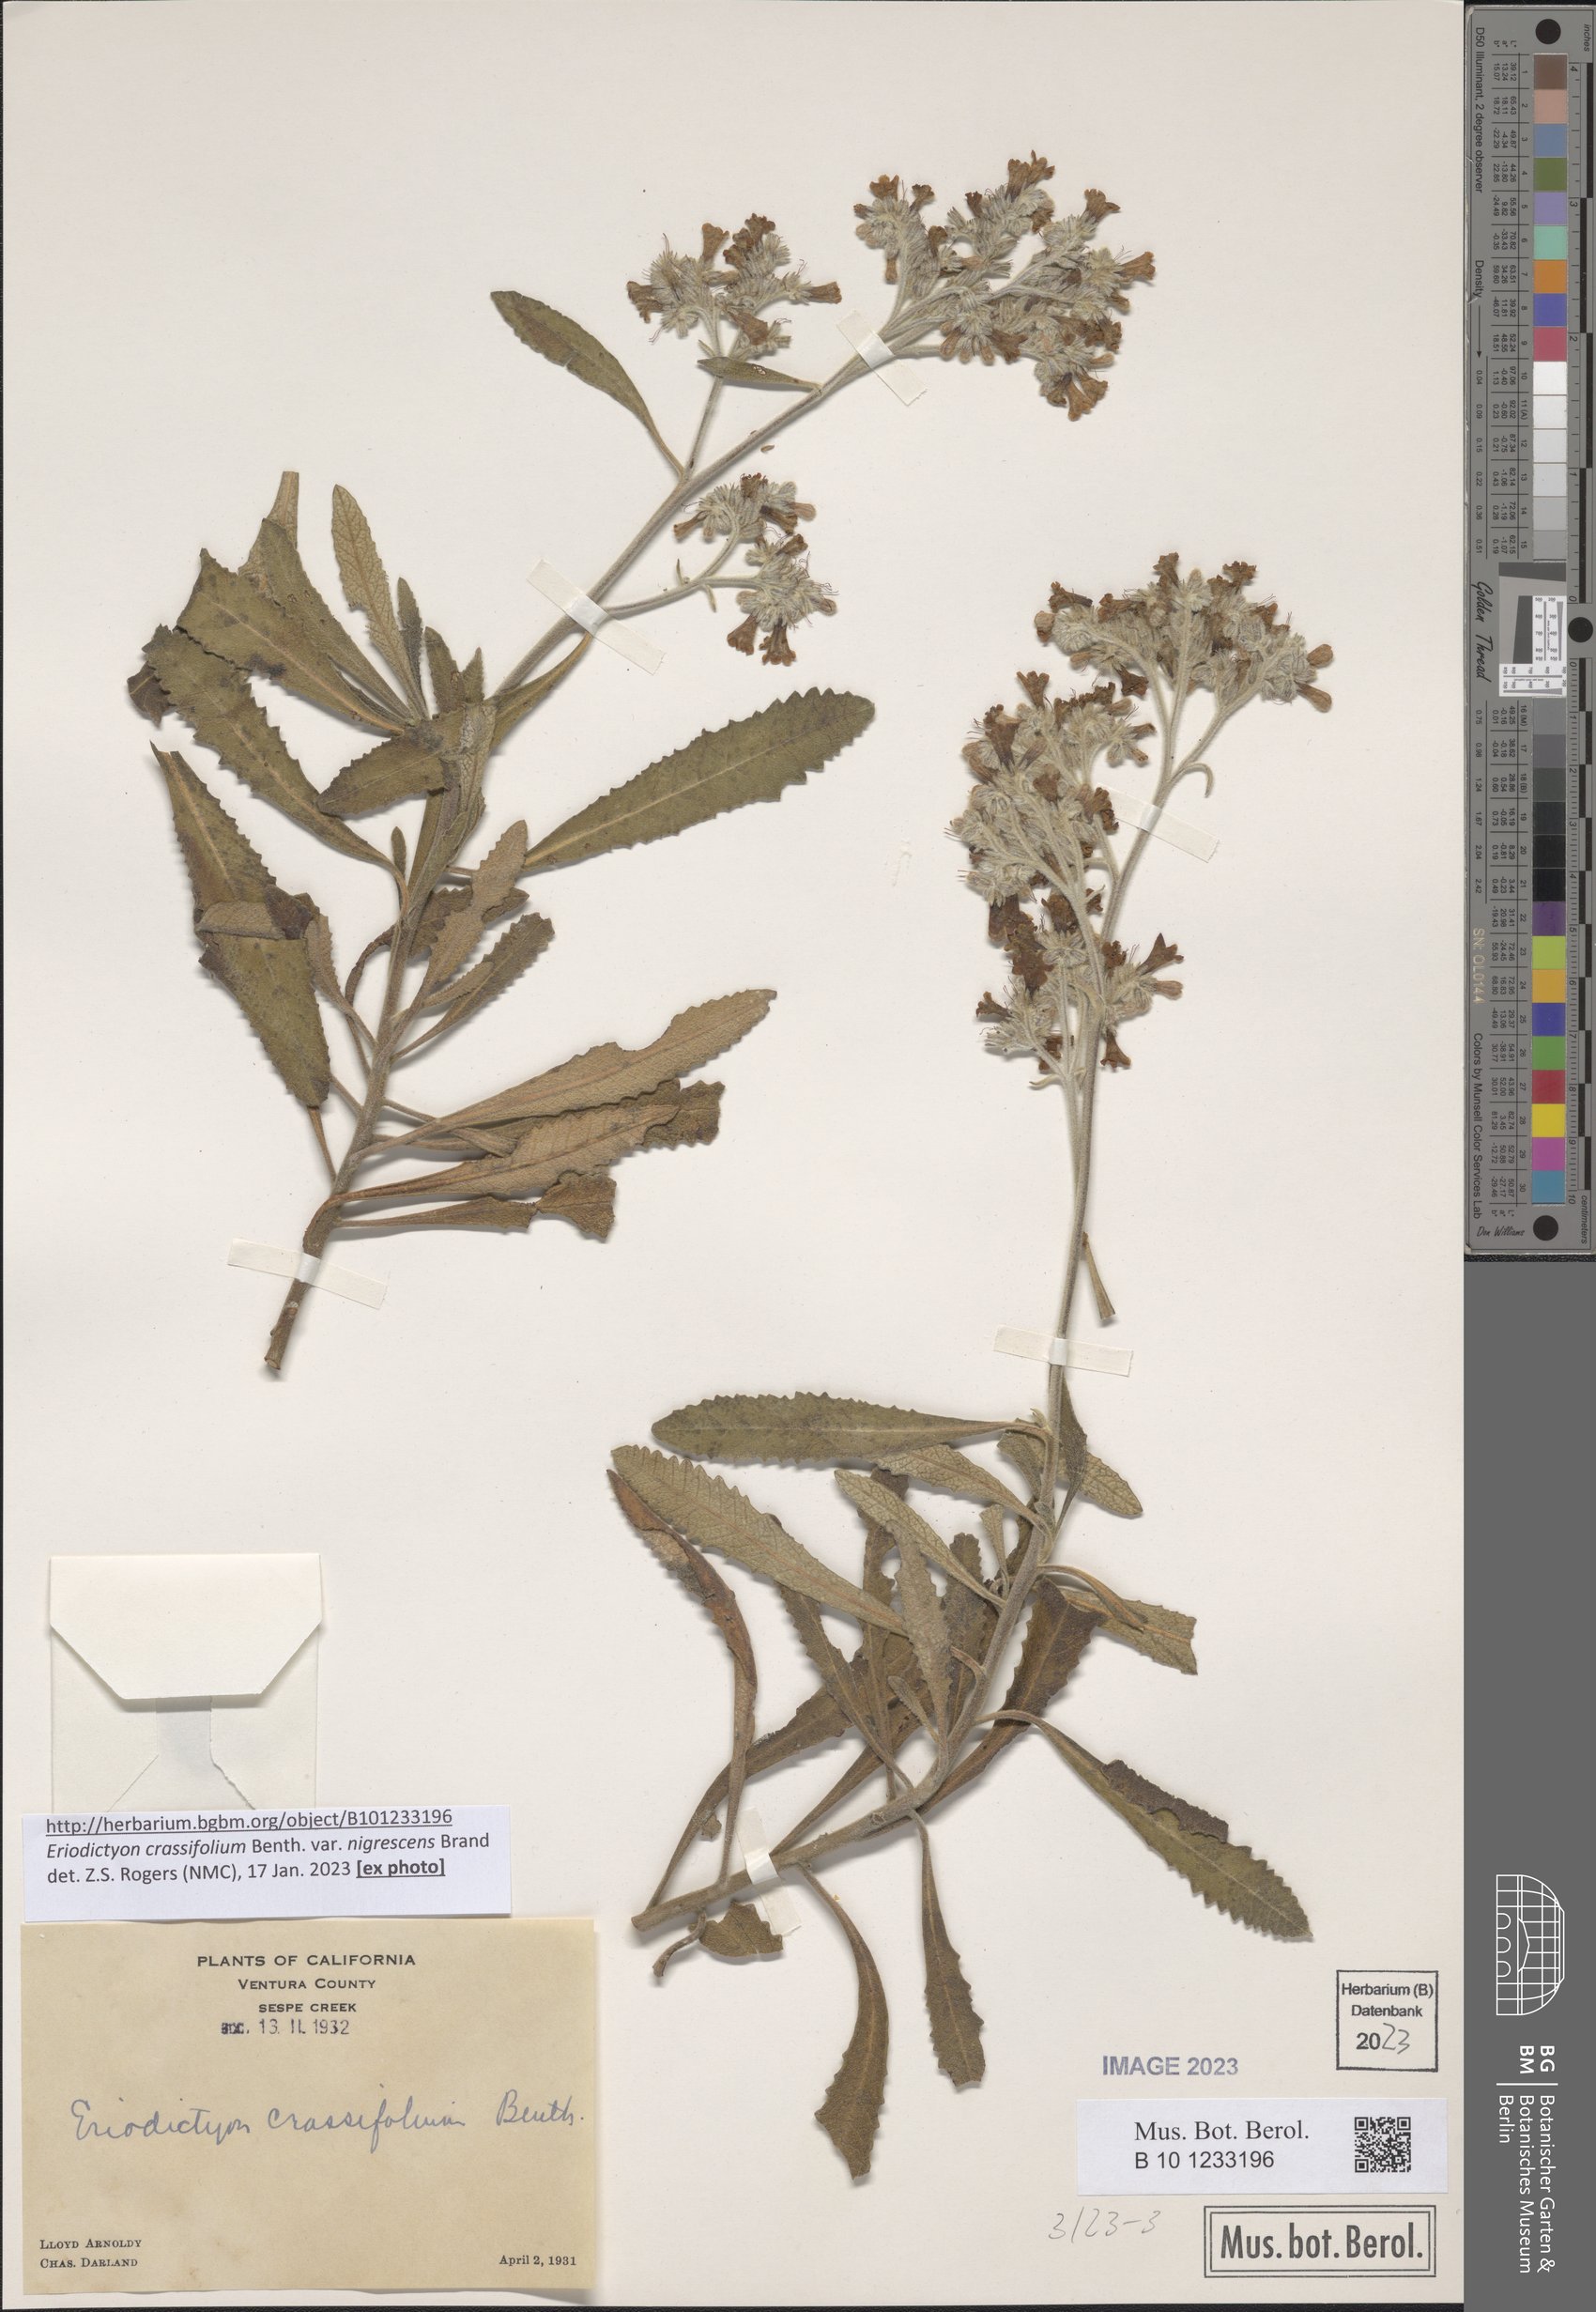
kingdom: Plantae
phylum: Tracheophyta
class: Magnoliopsida
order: Boraginales
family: Namaceae
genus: Eriodictyon
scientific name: Eriodictyon crassifolium
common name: Thick-leaf yerba-santa
